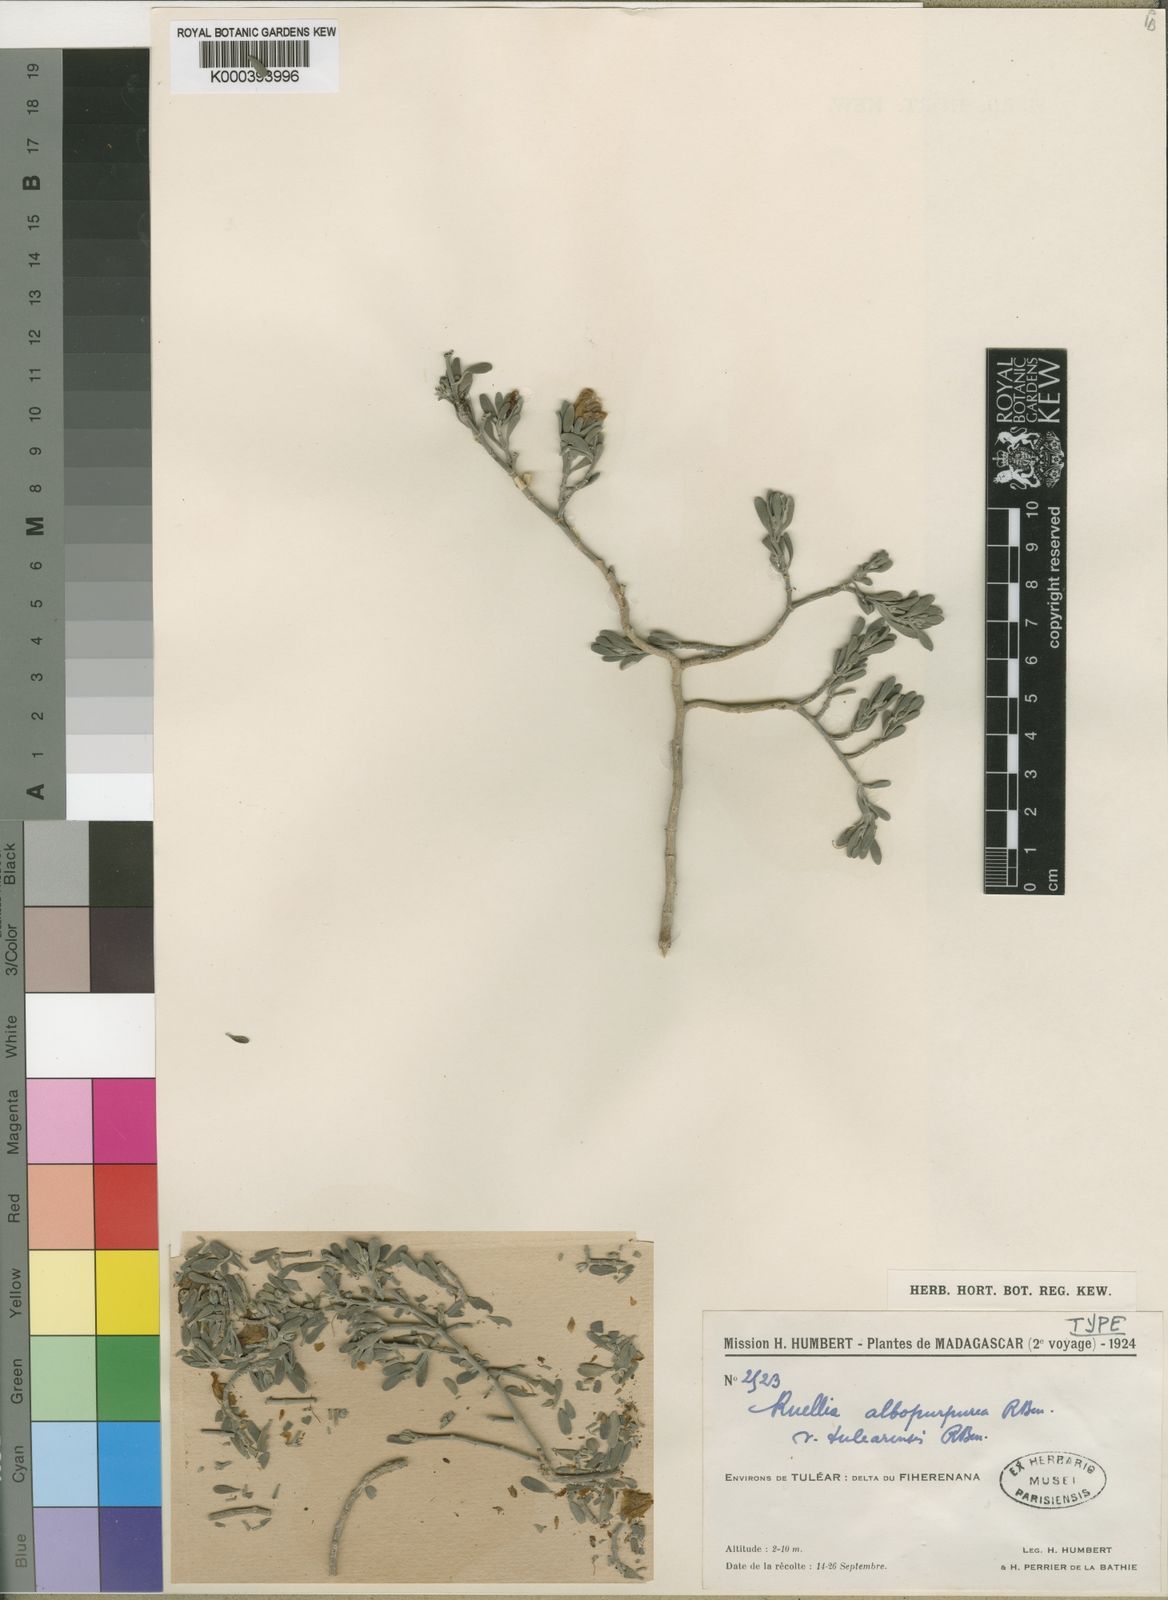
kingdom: Plantae
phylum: Tracheophyta
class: Magnoliopsida
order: Lamiales
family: Acanthaceae
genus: Ruellia
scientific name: Ruellia albopurpurea
